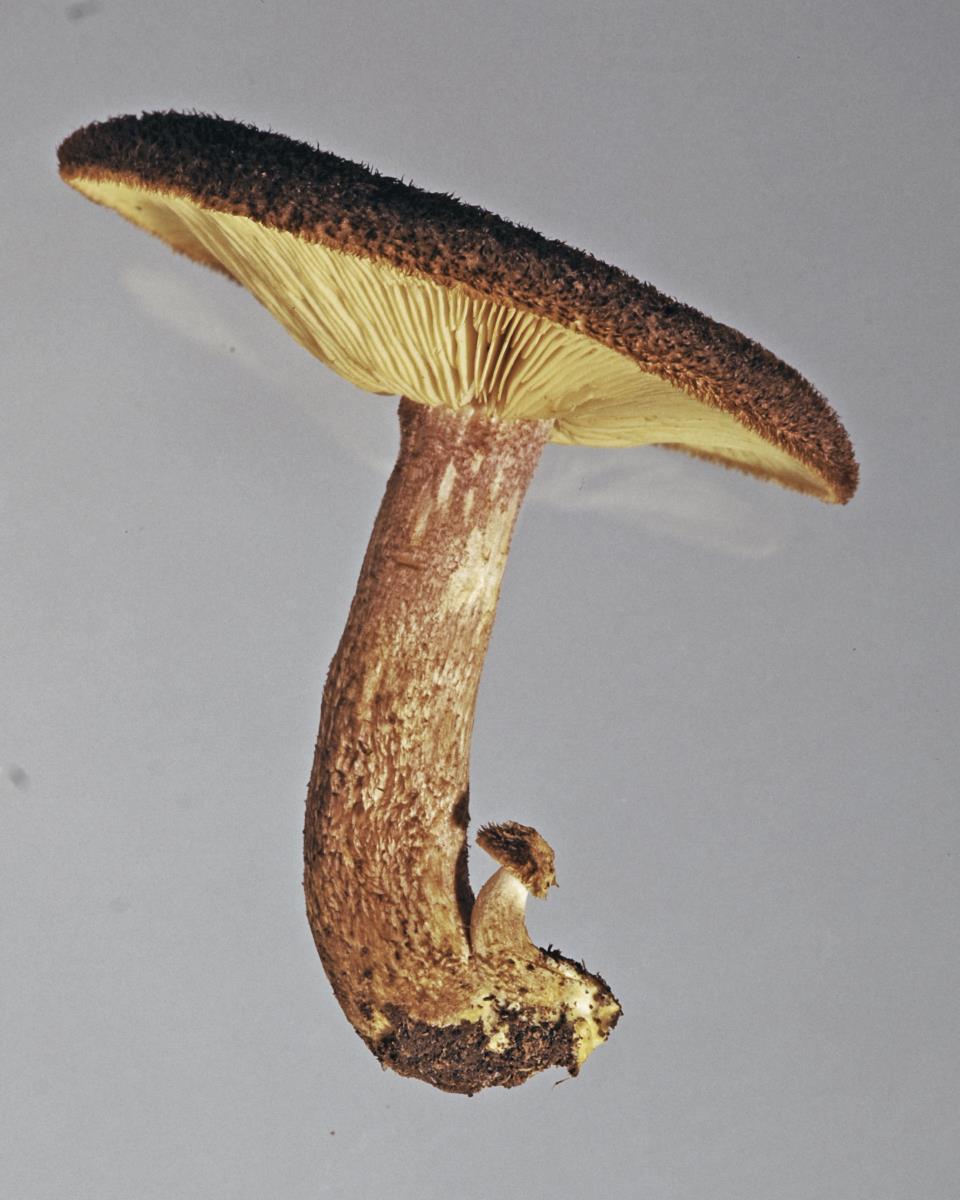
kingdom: Fungi
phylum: Basidiomycota
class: Agaricomycetes
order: Agaricales
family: Tricholomataceae
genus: Tricholomopsis
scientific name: Tricholomopsis scabra
